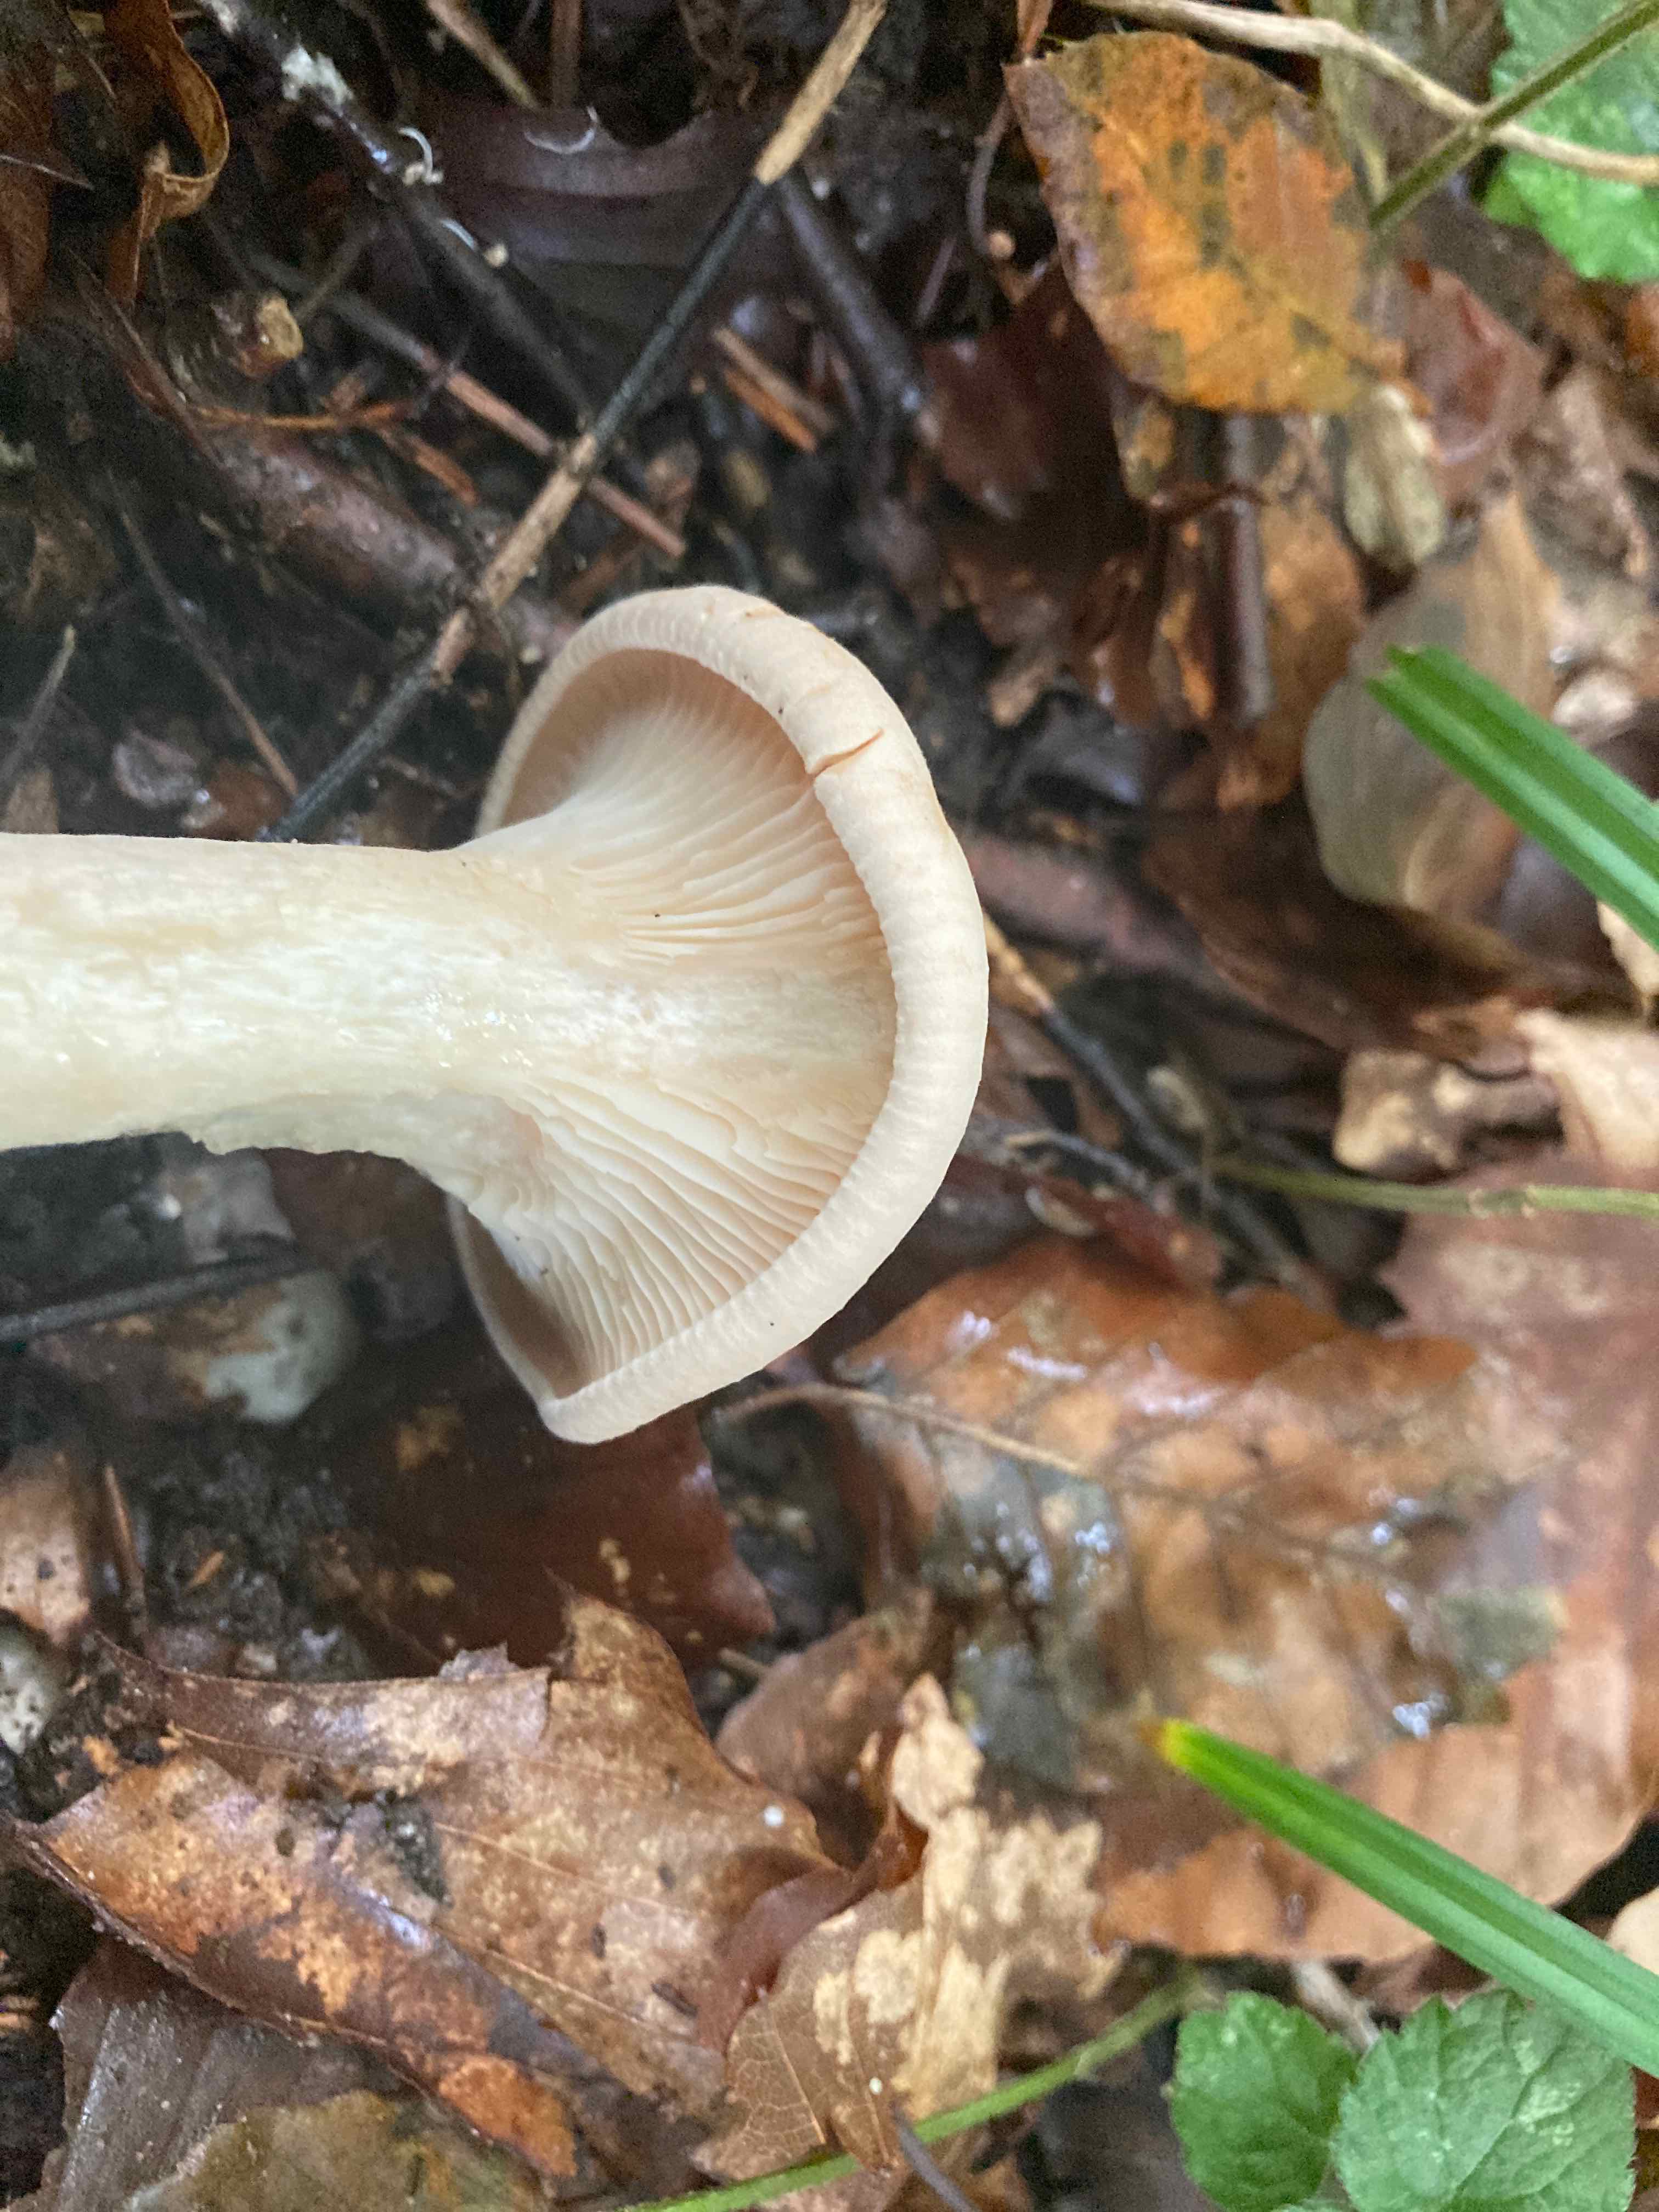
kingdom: Fungi
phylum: Basidiomycota
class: Agaricomycetes
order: Agaricales
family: Tricholomataceae
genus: Infundibulicybe
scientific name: Infundibulicybe geotropa
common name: stor tragthat
